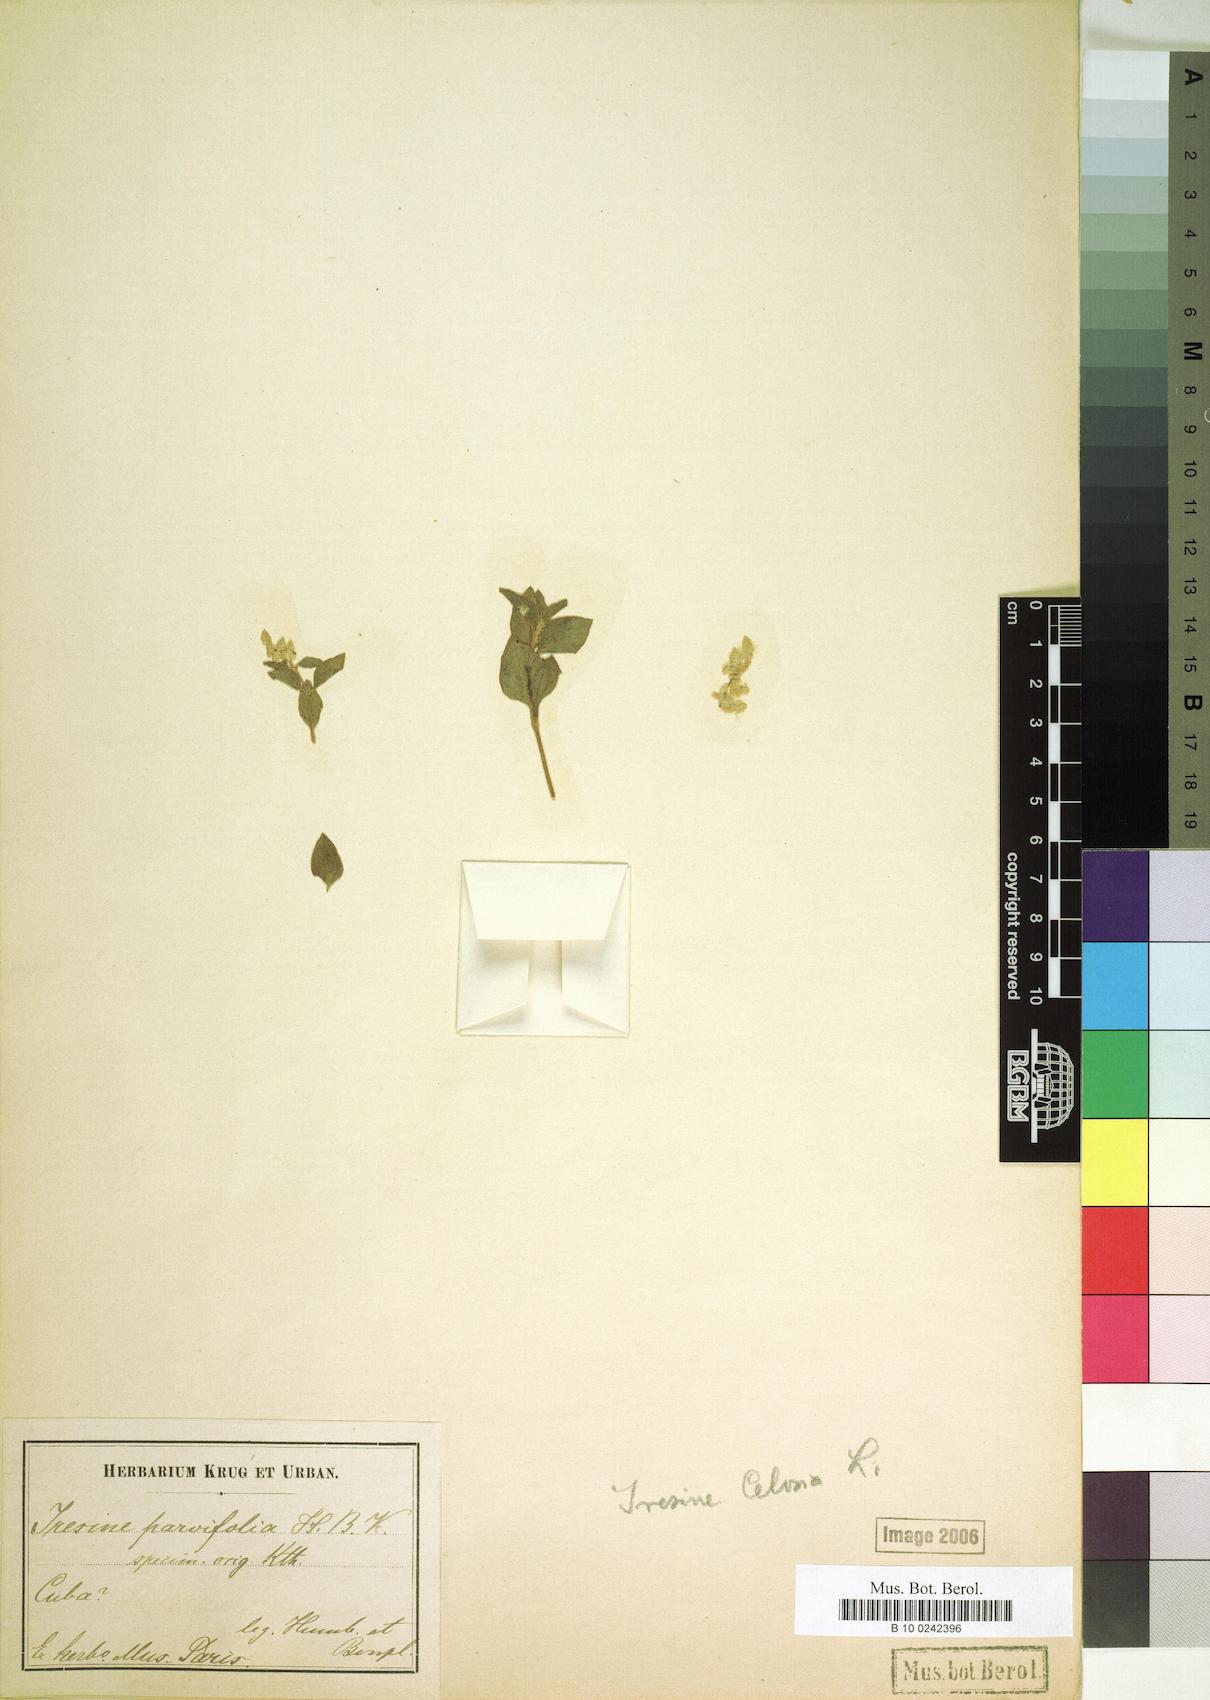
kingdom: Plantae
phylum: Tracheophyta
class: Magnoliopsida
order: Caryophyllales
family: Amaranthaceae
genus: Iresine
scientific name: Iresine diffusa
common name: Juba's-bush
